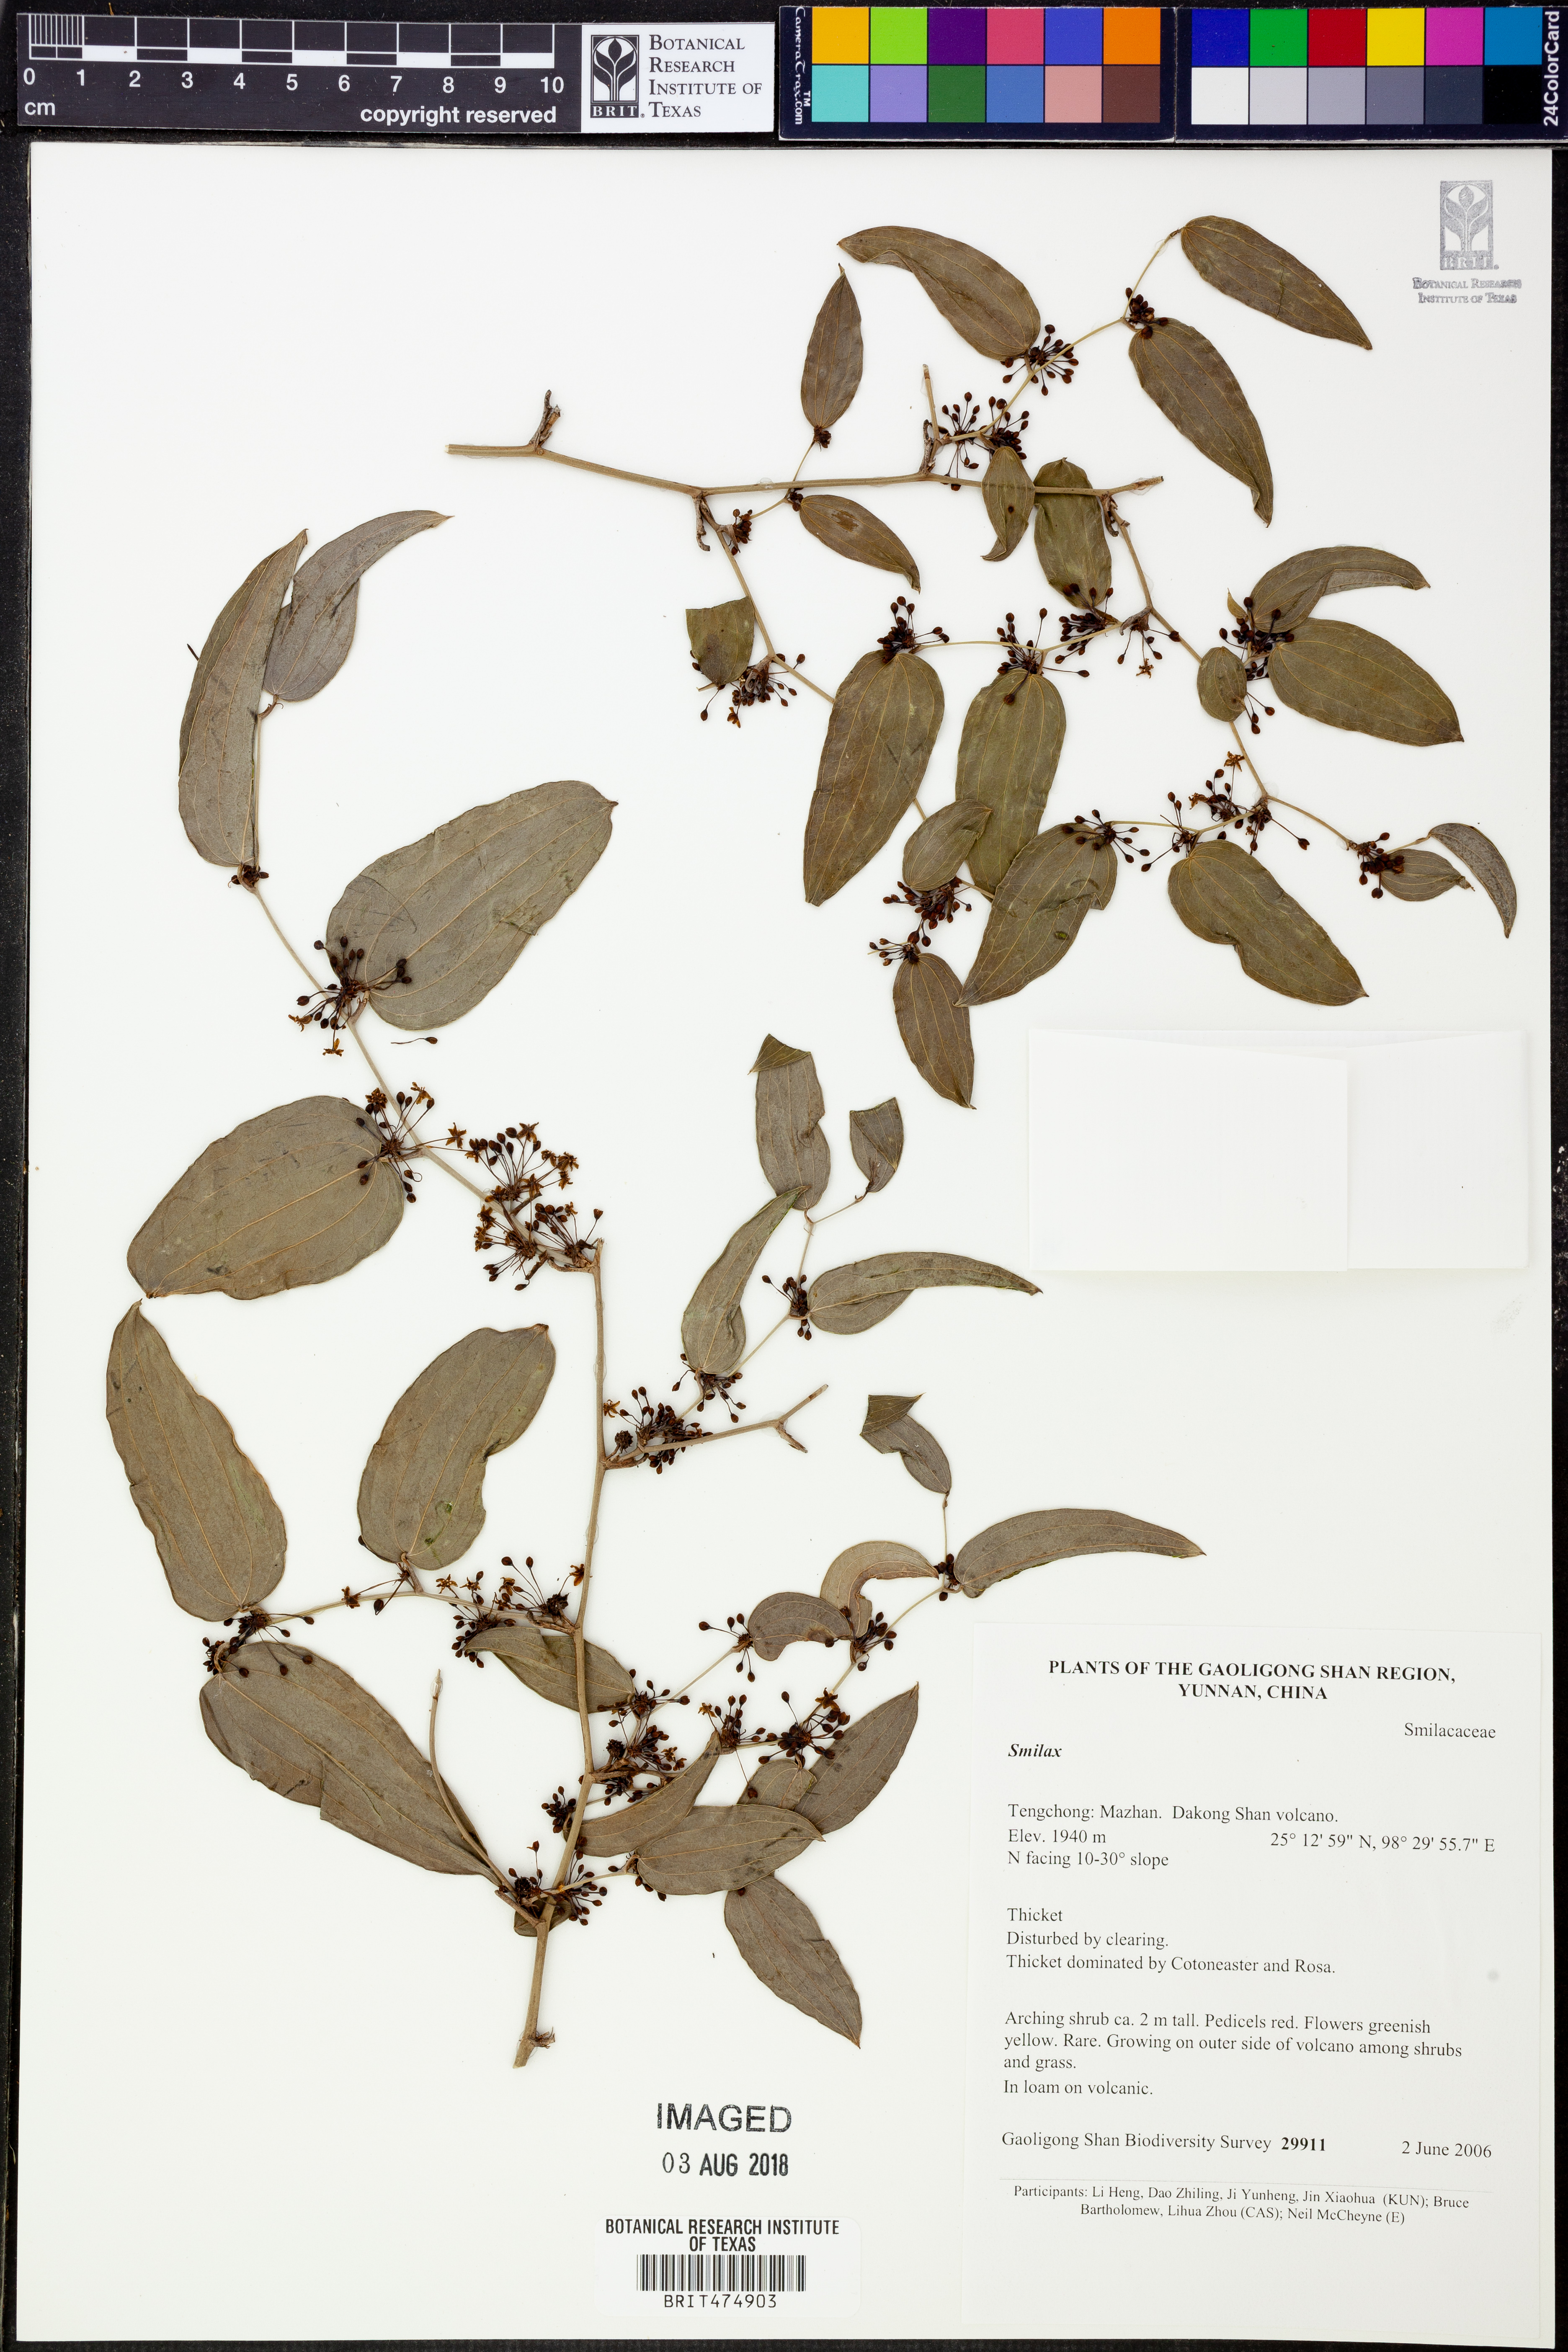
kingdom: Plantae
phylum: Tracheophyta
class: Liliopsida
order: Liliales
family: Smilacaceae
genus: Smilax
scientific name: Smilax
